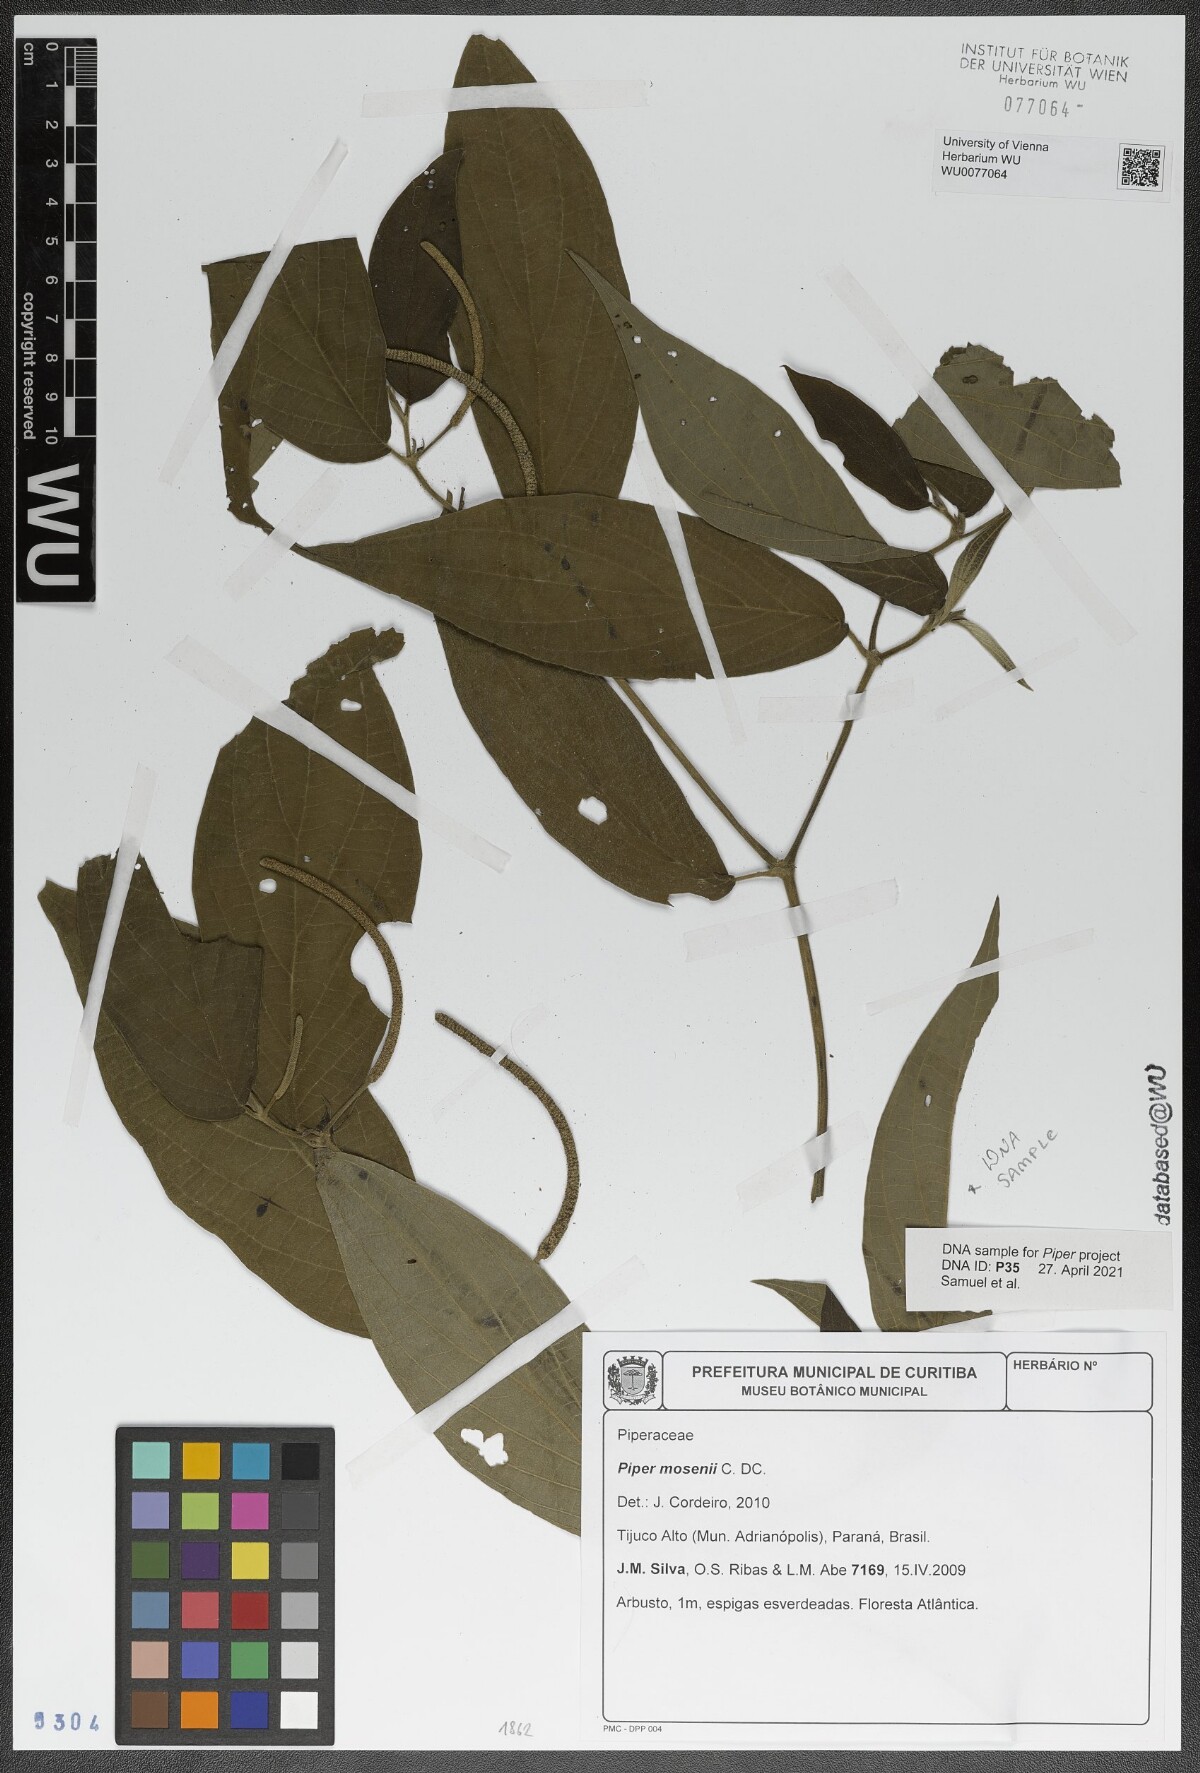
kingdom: Plantae
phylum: Tracheophyta
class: Magnoliopsida
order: Piperales
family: Piperaceae
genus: Piper
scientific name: Piper mosenii
